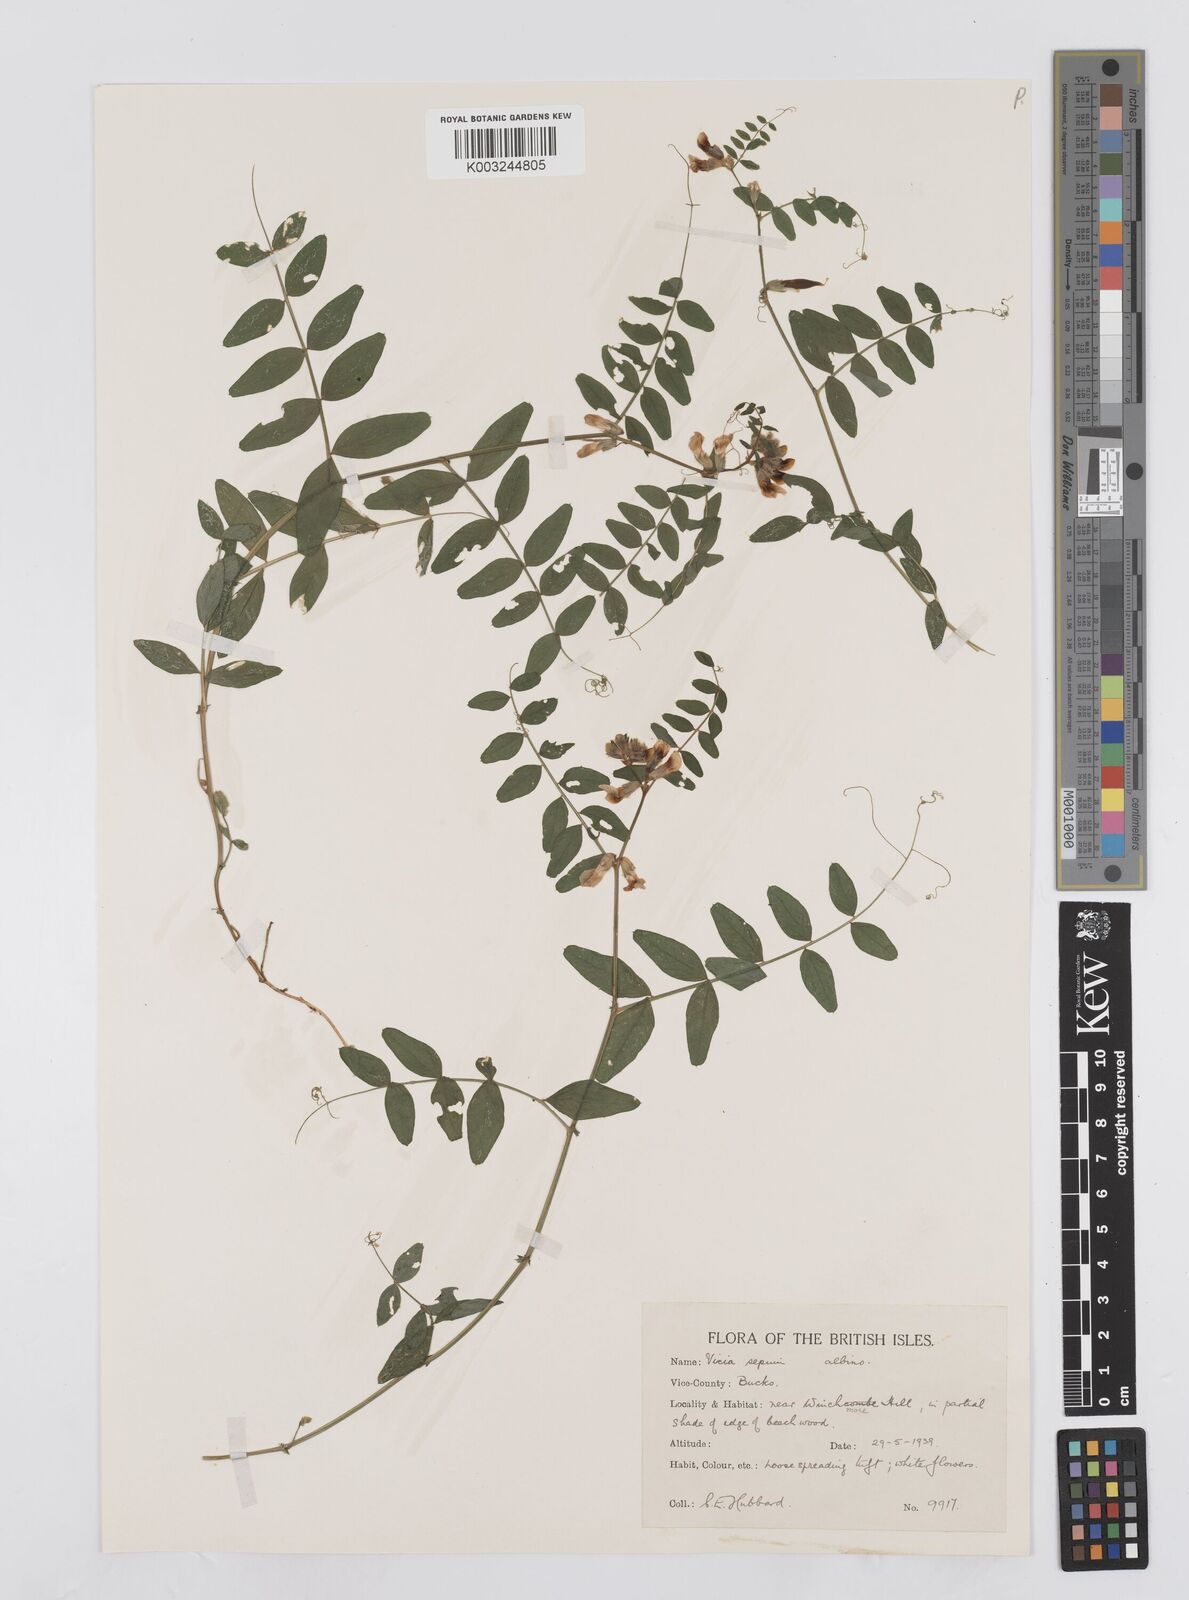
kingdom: Plantae
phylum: Tracheophyta
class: Magnoliopsida
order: Fabales
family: Fabaceae
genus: Vicia
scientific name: Vicia sepium
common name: Bush vetch
